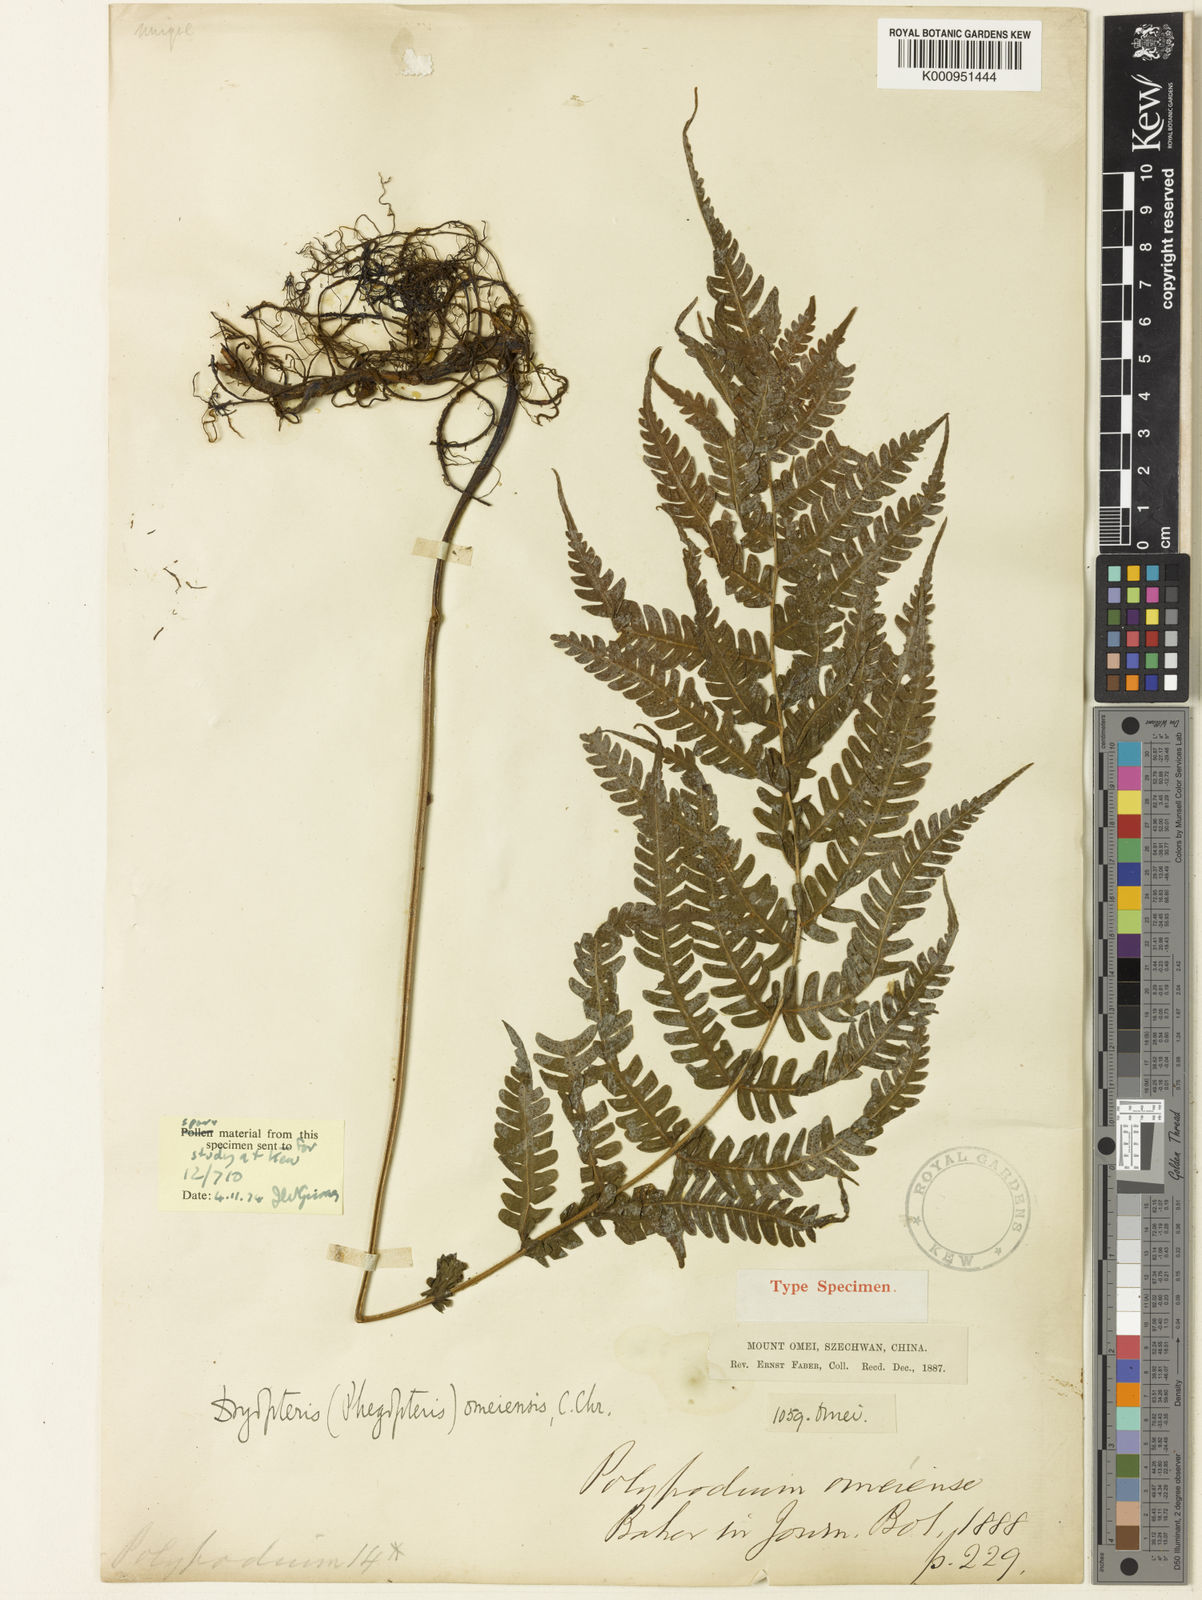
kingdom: Plantae
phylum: Tracheophyta
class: Polypodiopsida
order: Polypodiales
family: Thelypteridaceae
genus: Cyclogramma
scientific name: Cyclogramma omeiensis
